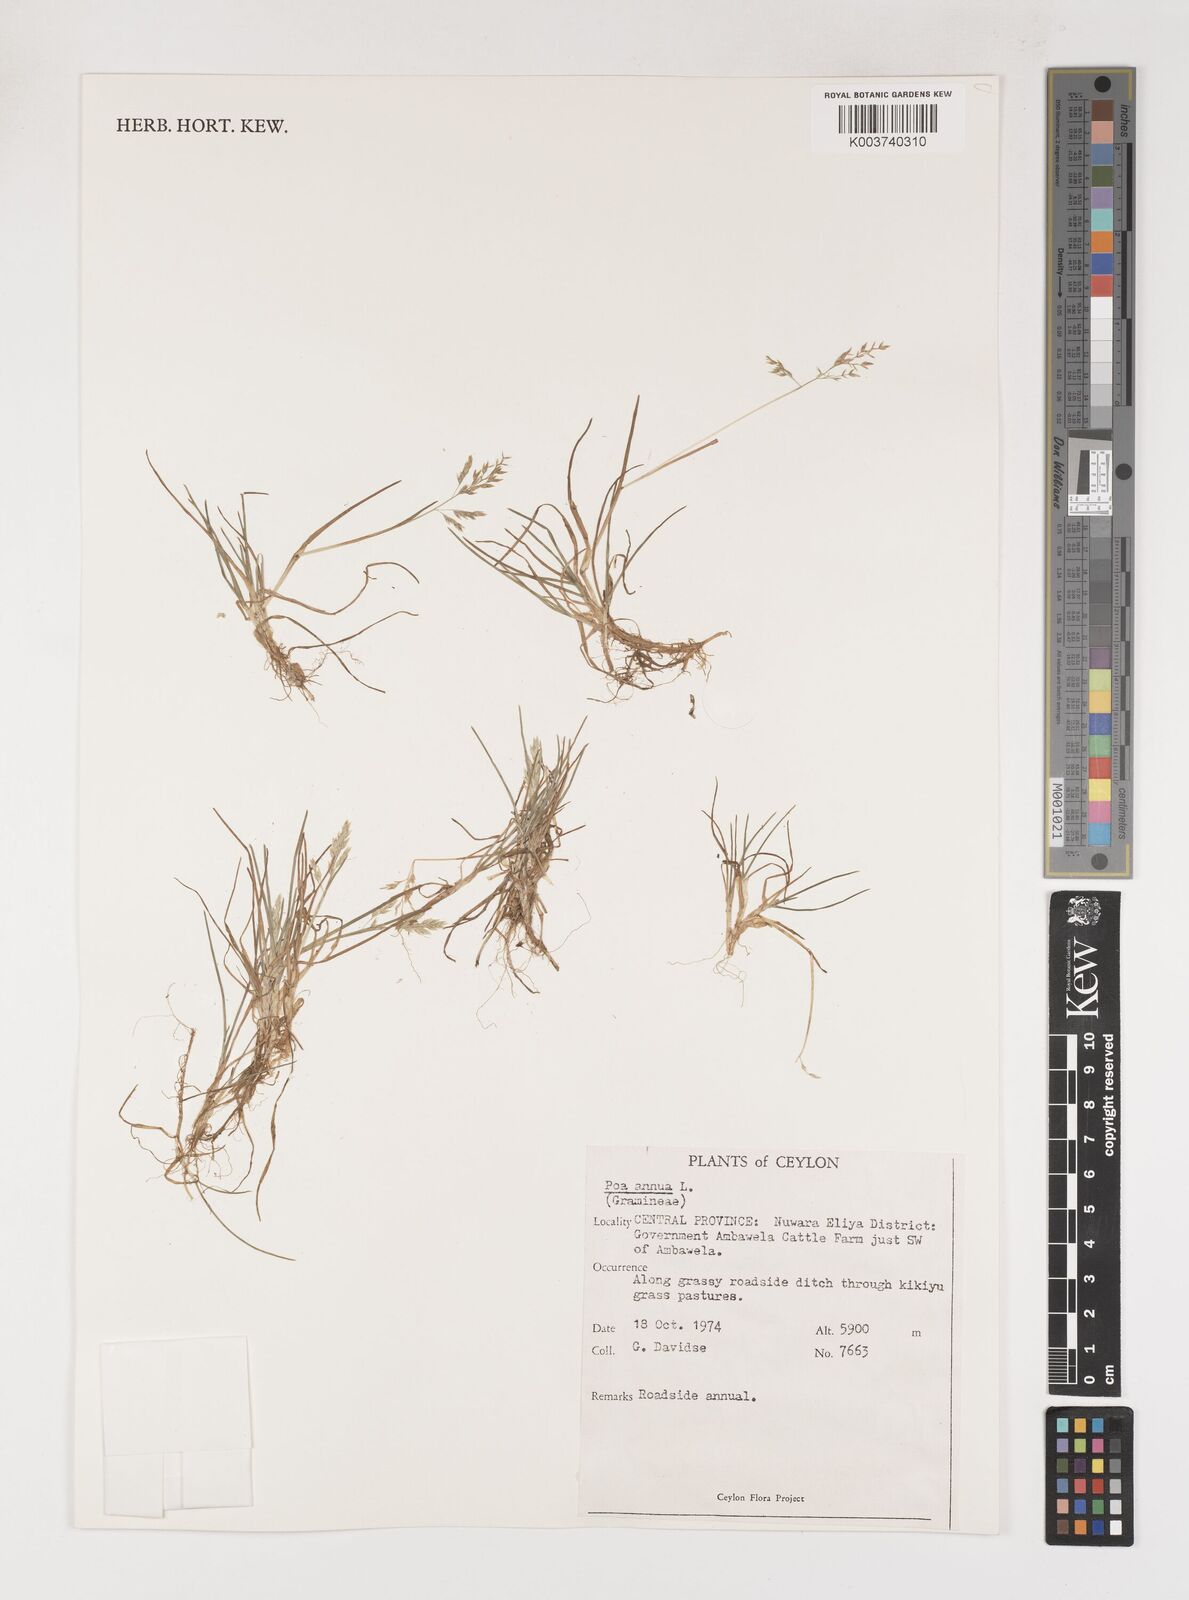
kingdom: Plantae
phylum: Tracheophyta
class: Liliopsida
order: Poales
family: Poaceae
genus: Poa
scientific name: Poa annua
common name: Annual bluegrass
